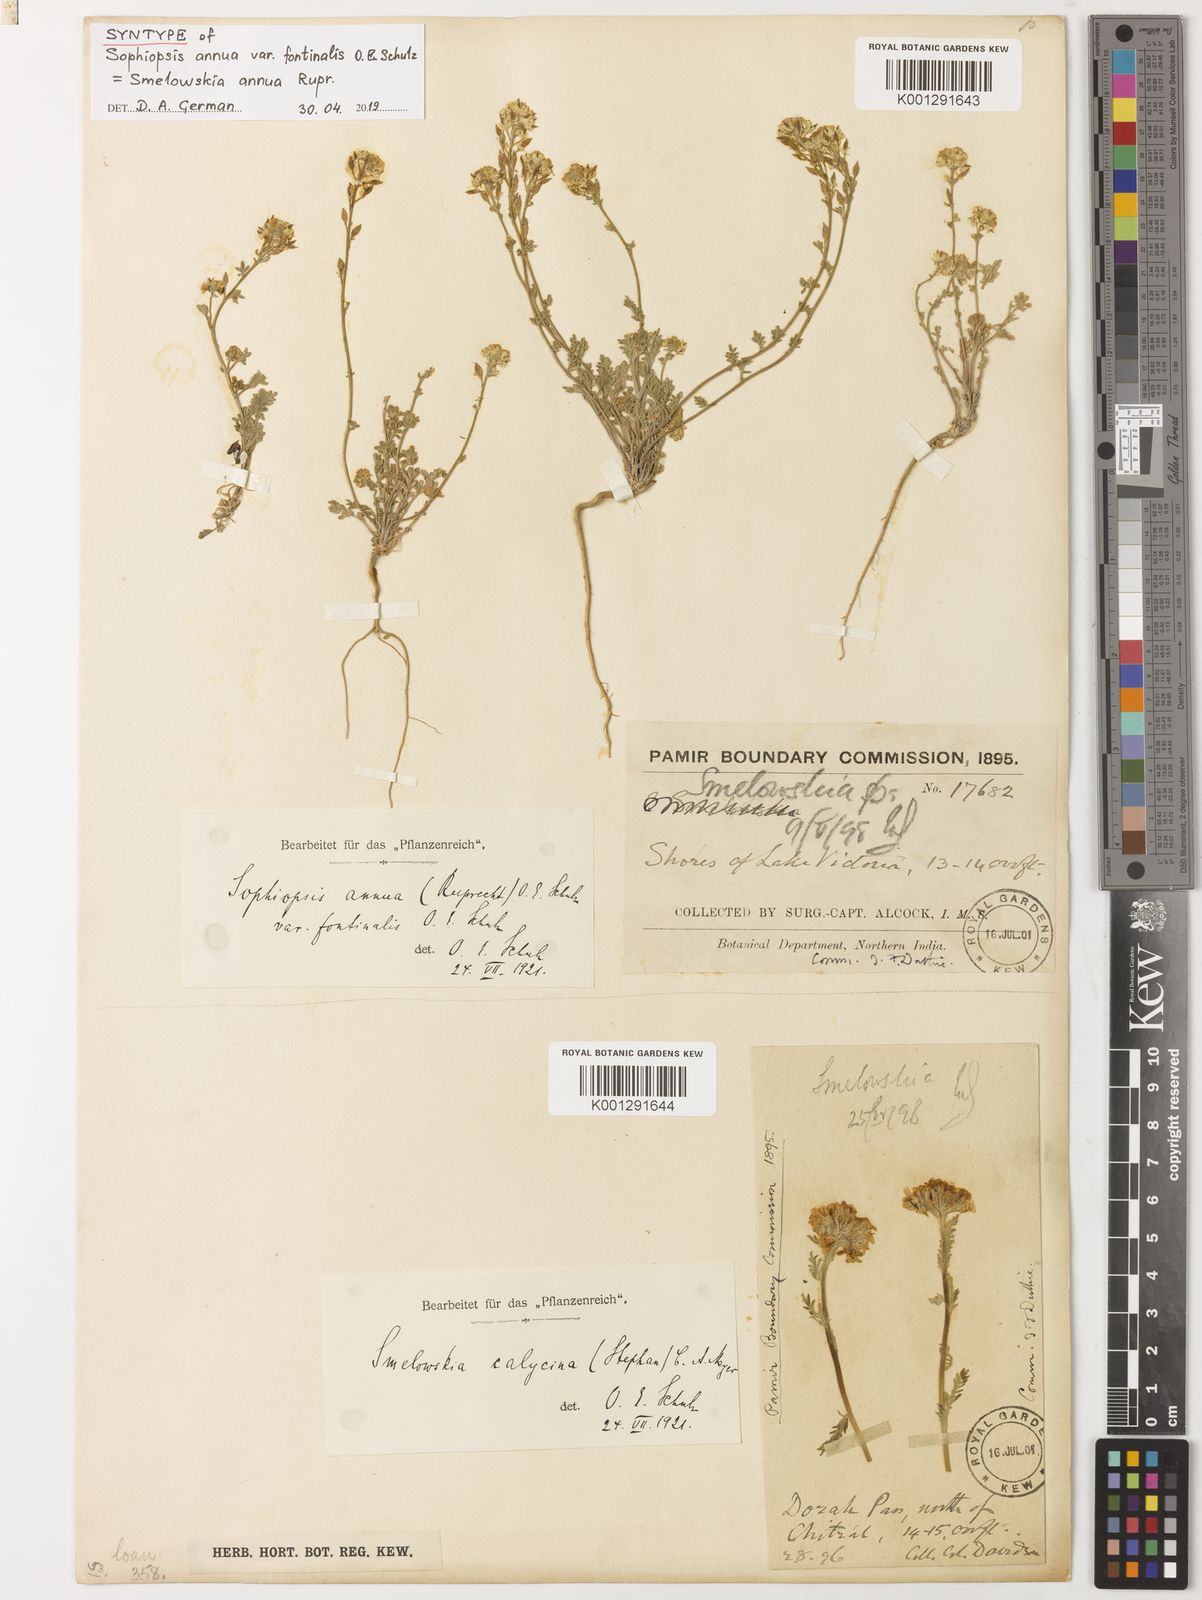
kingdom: Plantae
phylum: Tracheophyta
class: Magnoliopsida
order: Brassicales
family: Brassicaceae
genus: Smelowskia
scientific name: Smelowskia annua
